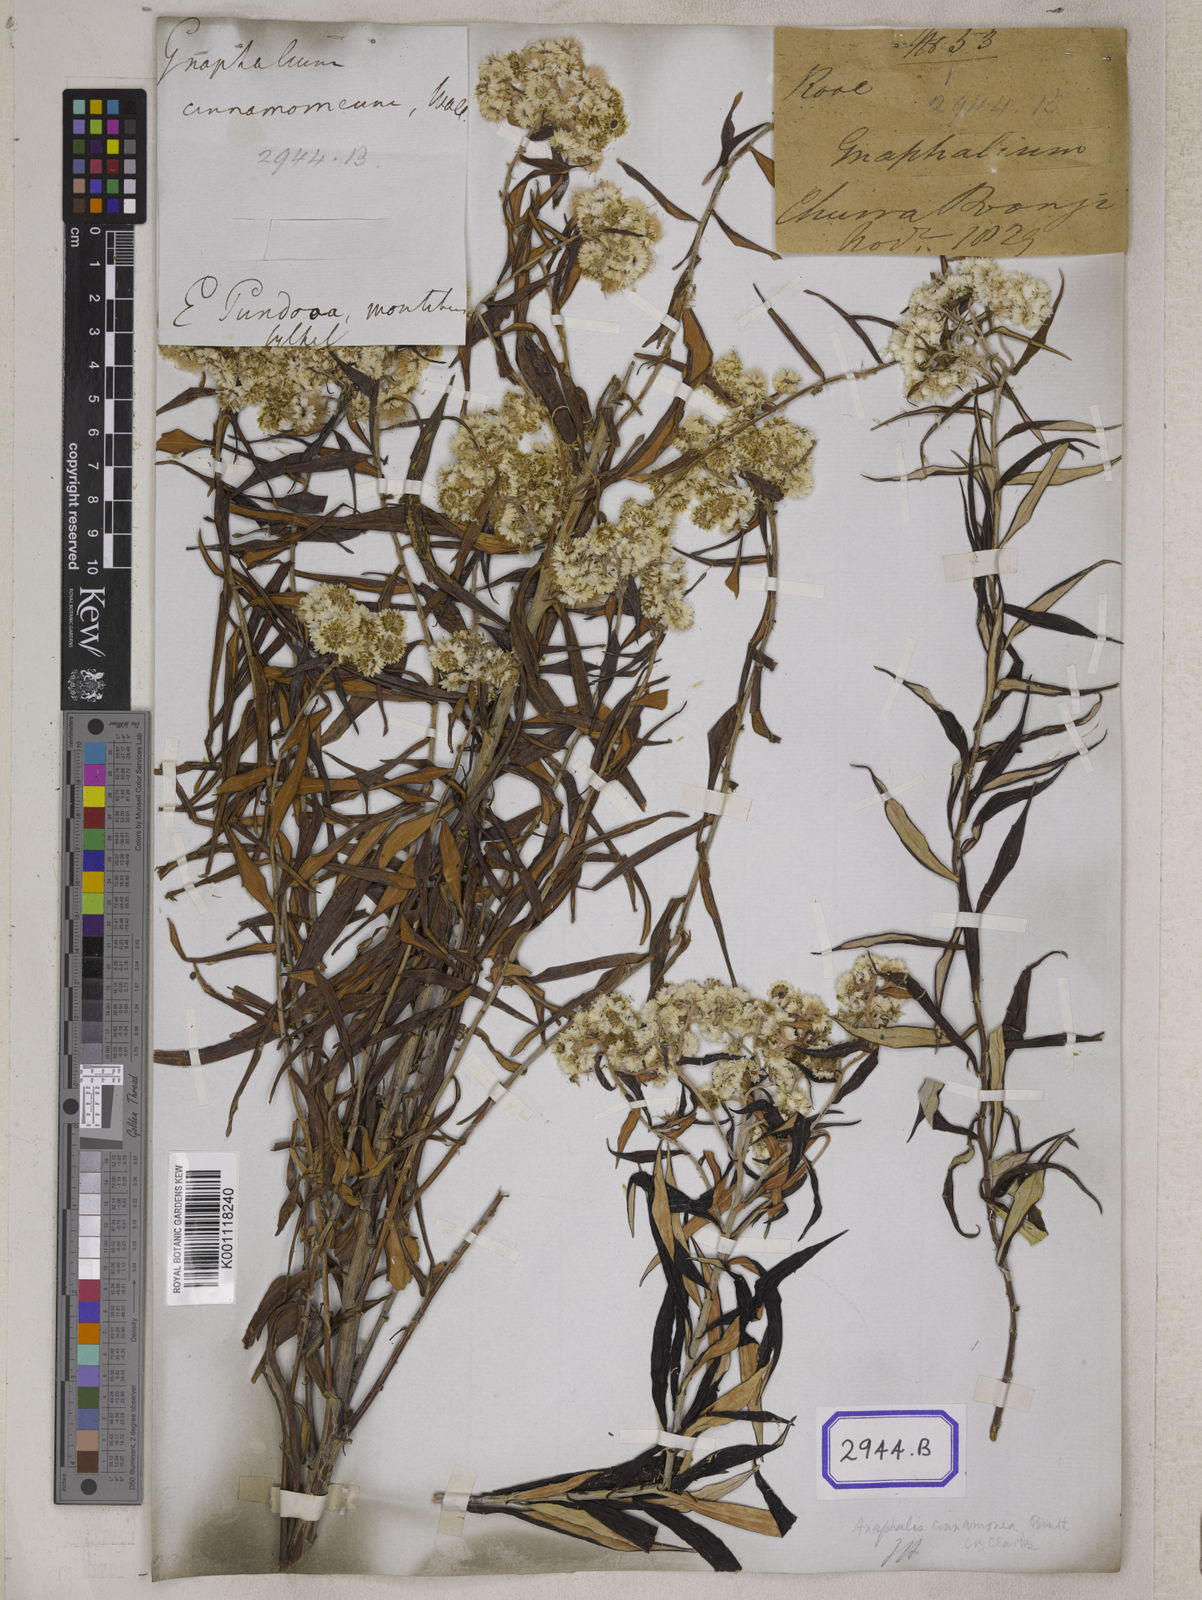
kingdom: Plantae
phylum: Tracheophyta
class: Magnoliopsida
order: Asterales
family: Asteraceae
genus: Anaphalis
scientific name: Anaphalis margaritacea
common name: Pearly everlasting
